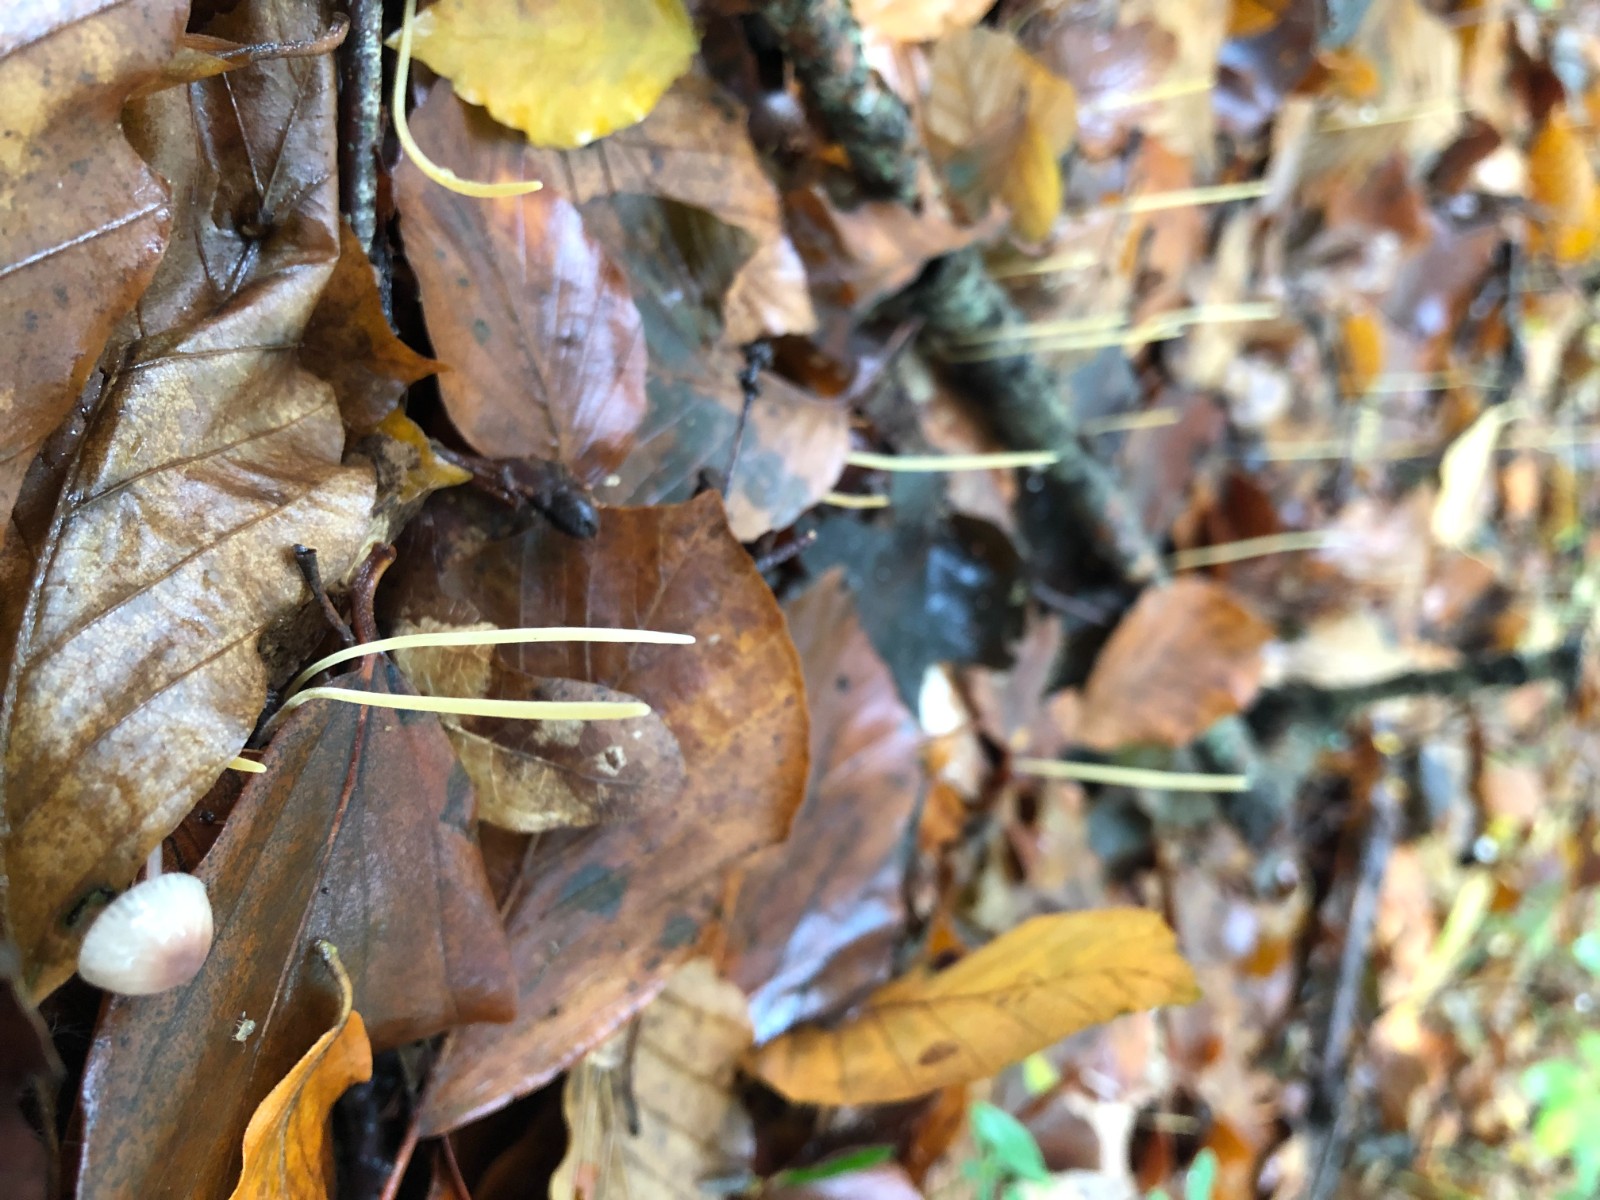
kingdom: Fungi
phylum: Basidiomycota
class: Agaricomycetes
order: Agaricales
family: Typhulaceae
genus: Typhula
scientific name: Typhula juncea
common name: trådagtig rørkølle
